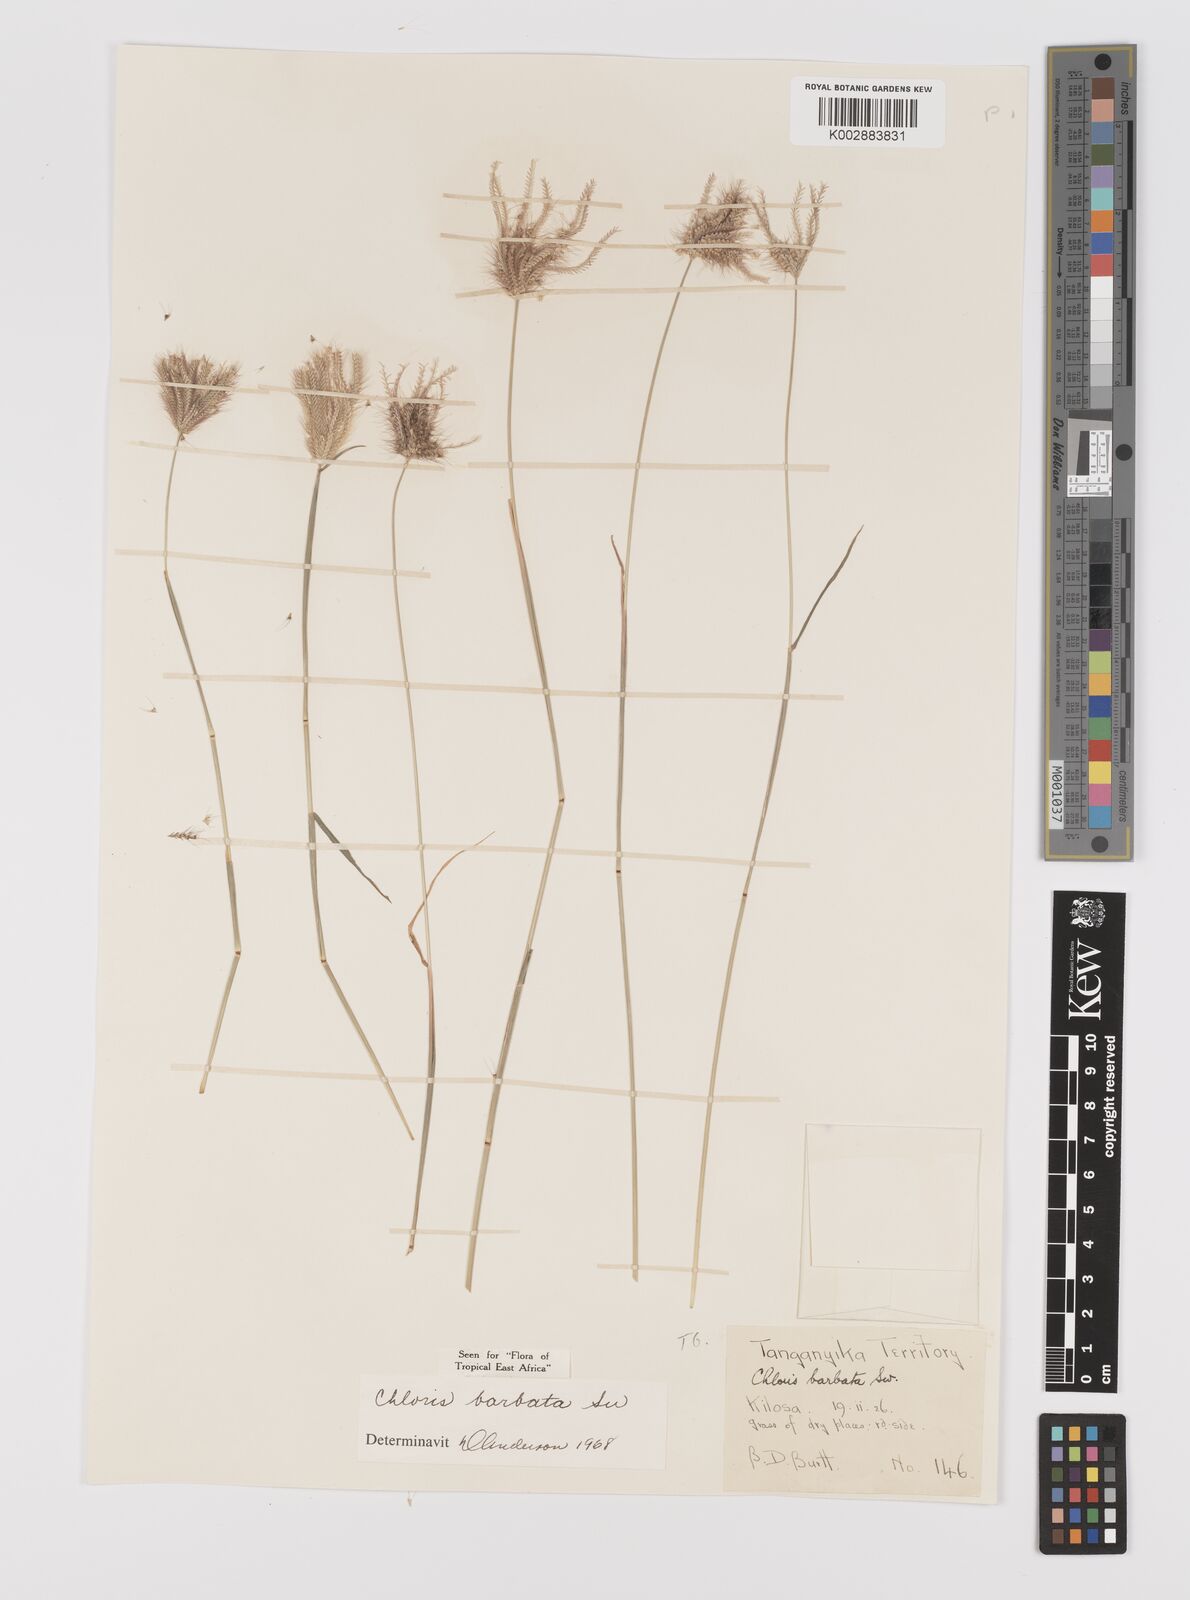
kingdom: Plantae
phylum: Tracheophyta
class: Liliopsida
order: Poales
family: Poaceae
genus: Chloris
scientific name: Chloris barbata
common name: Swollen fingergrass
